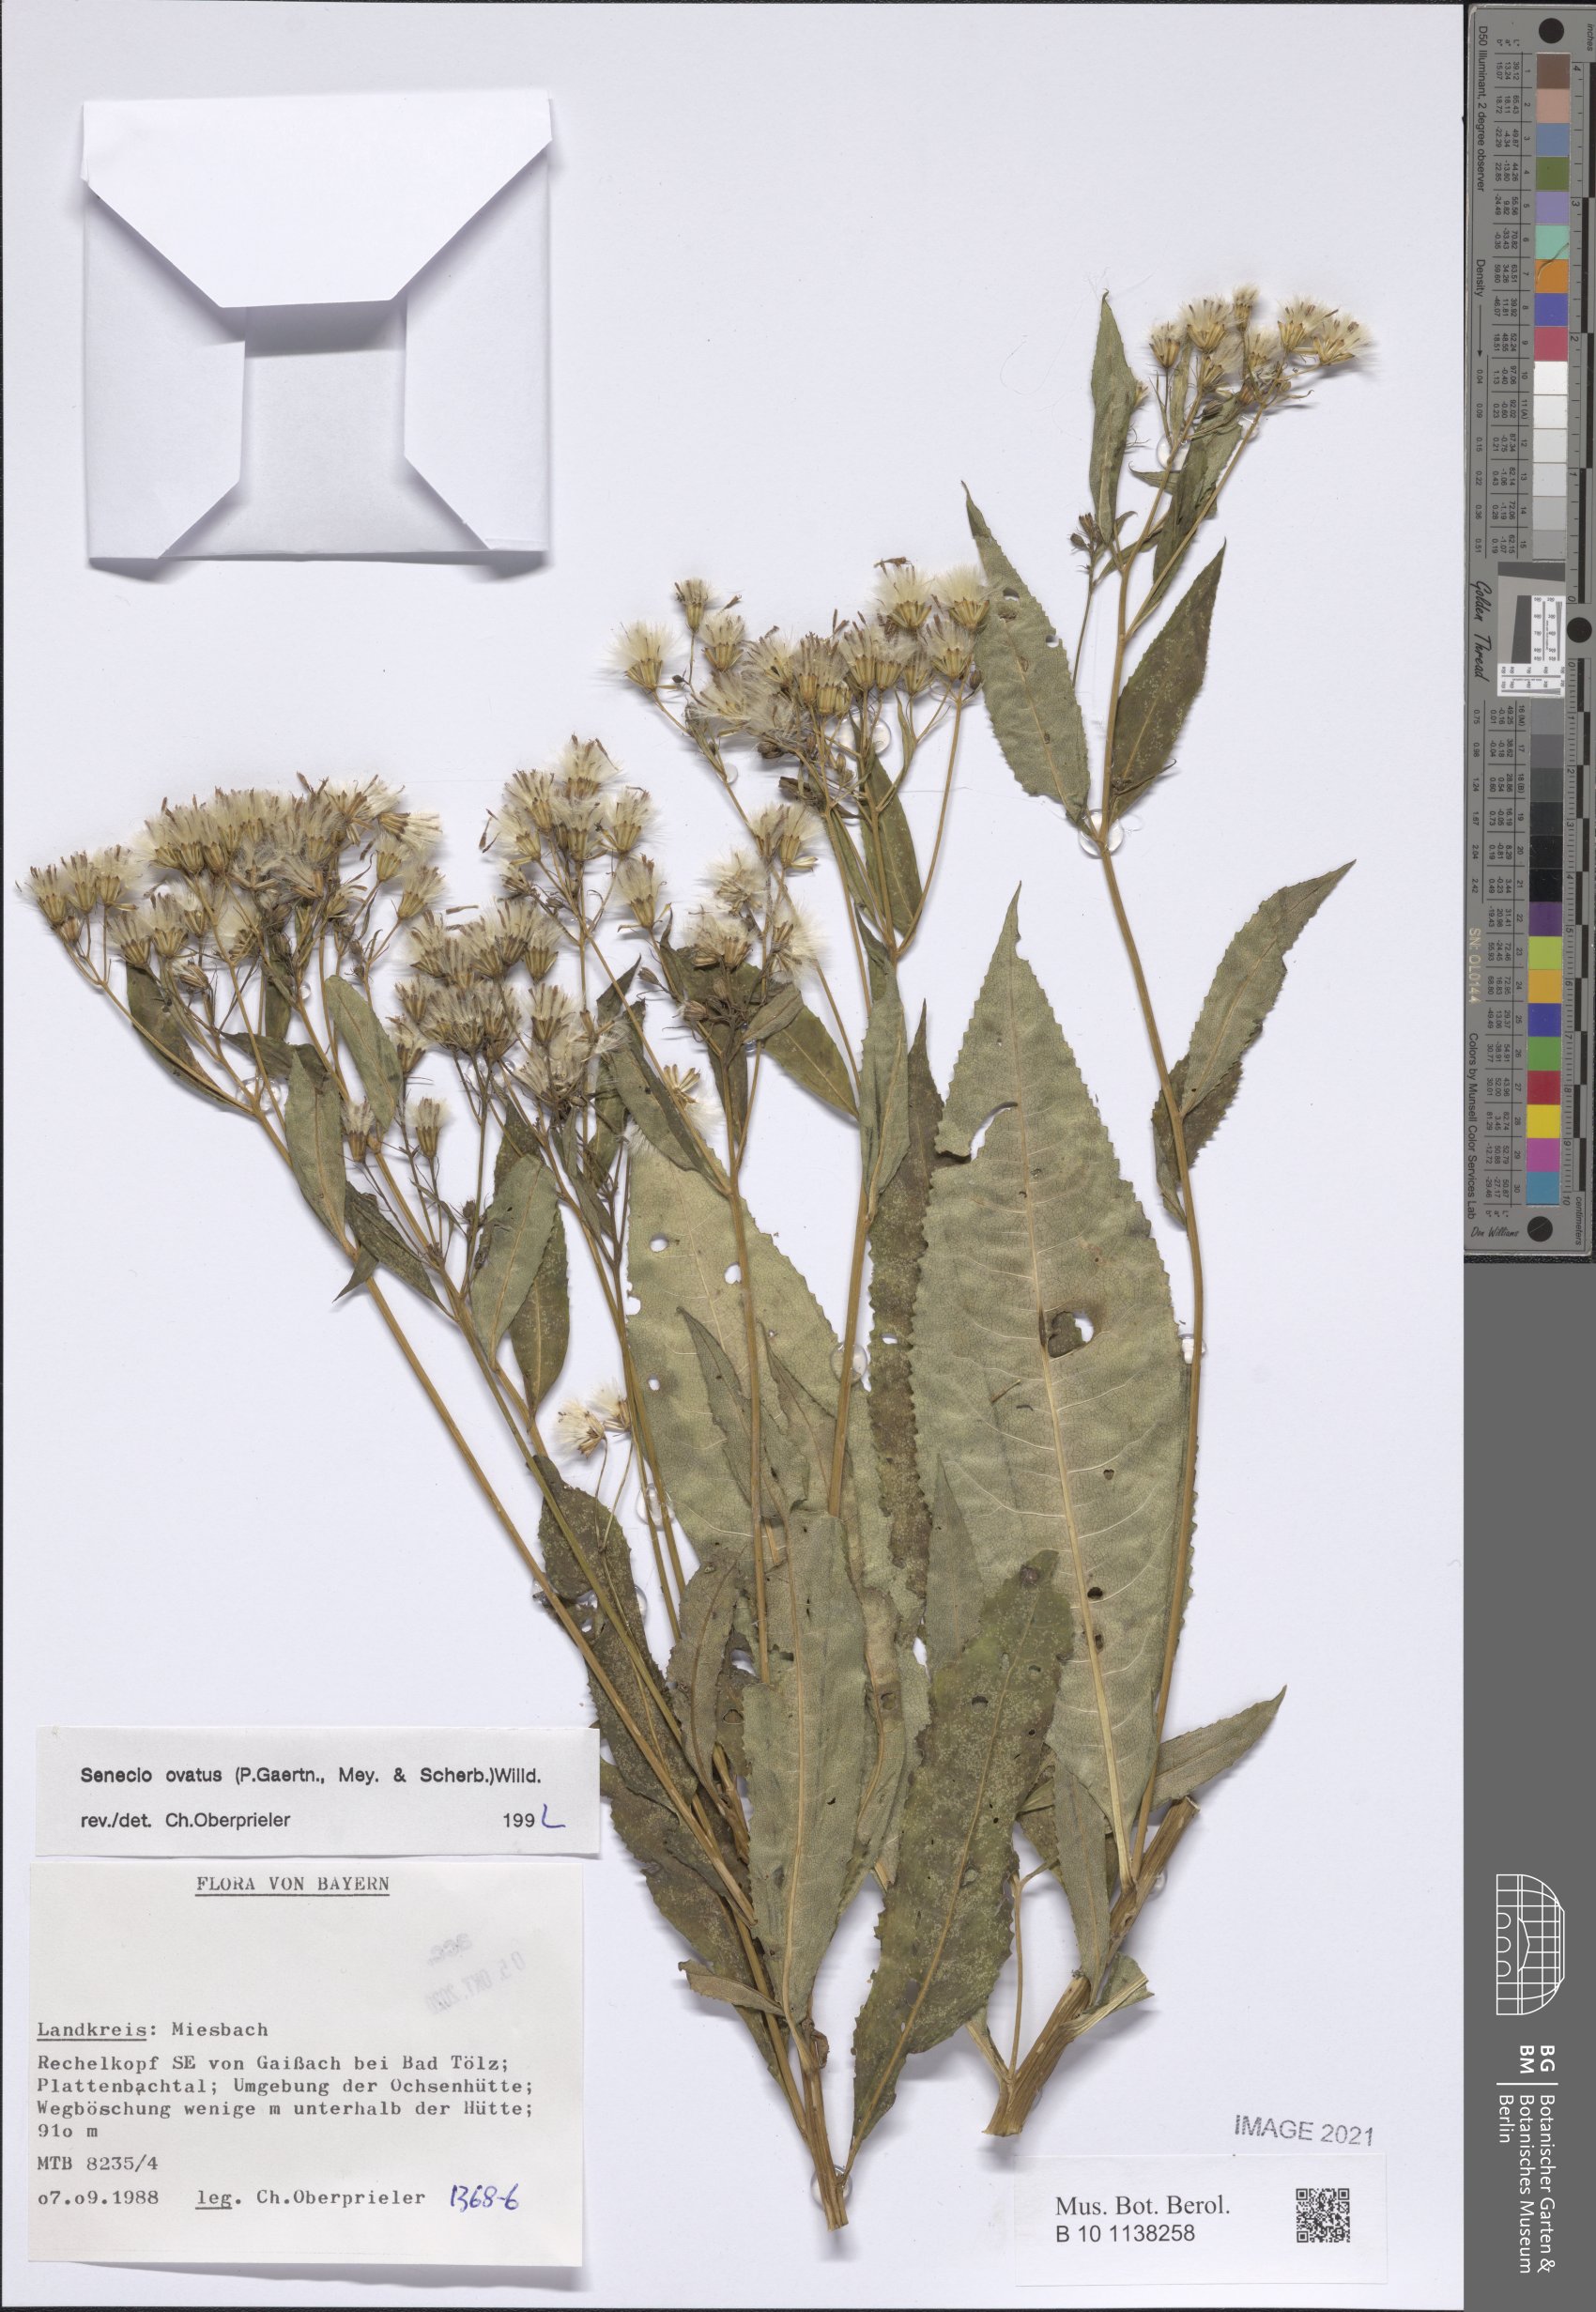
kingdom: Plantae
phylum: Tracheophyta
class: Magnoliopsida
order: Asterales
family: Asteraceae
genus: Senecio
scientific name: Senecio ovatus
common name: Wood ragwort
